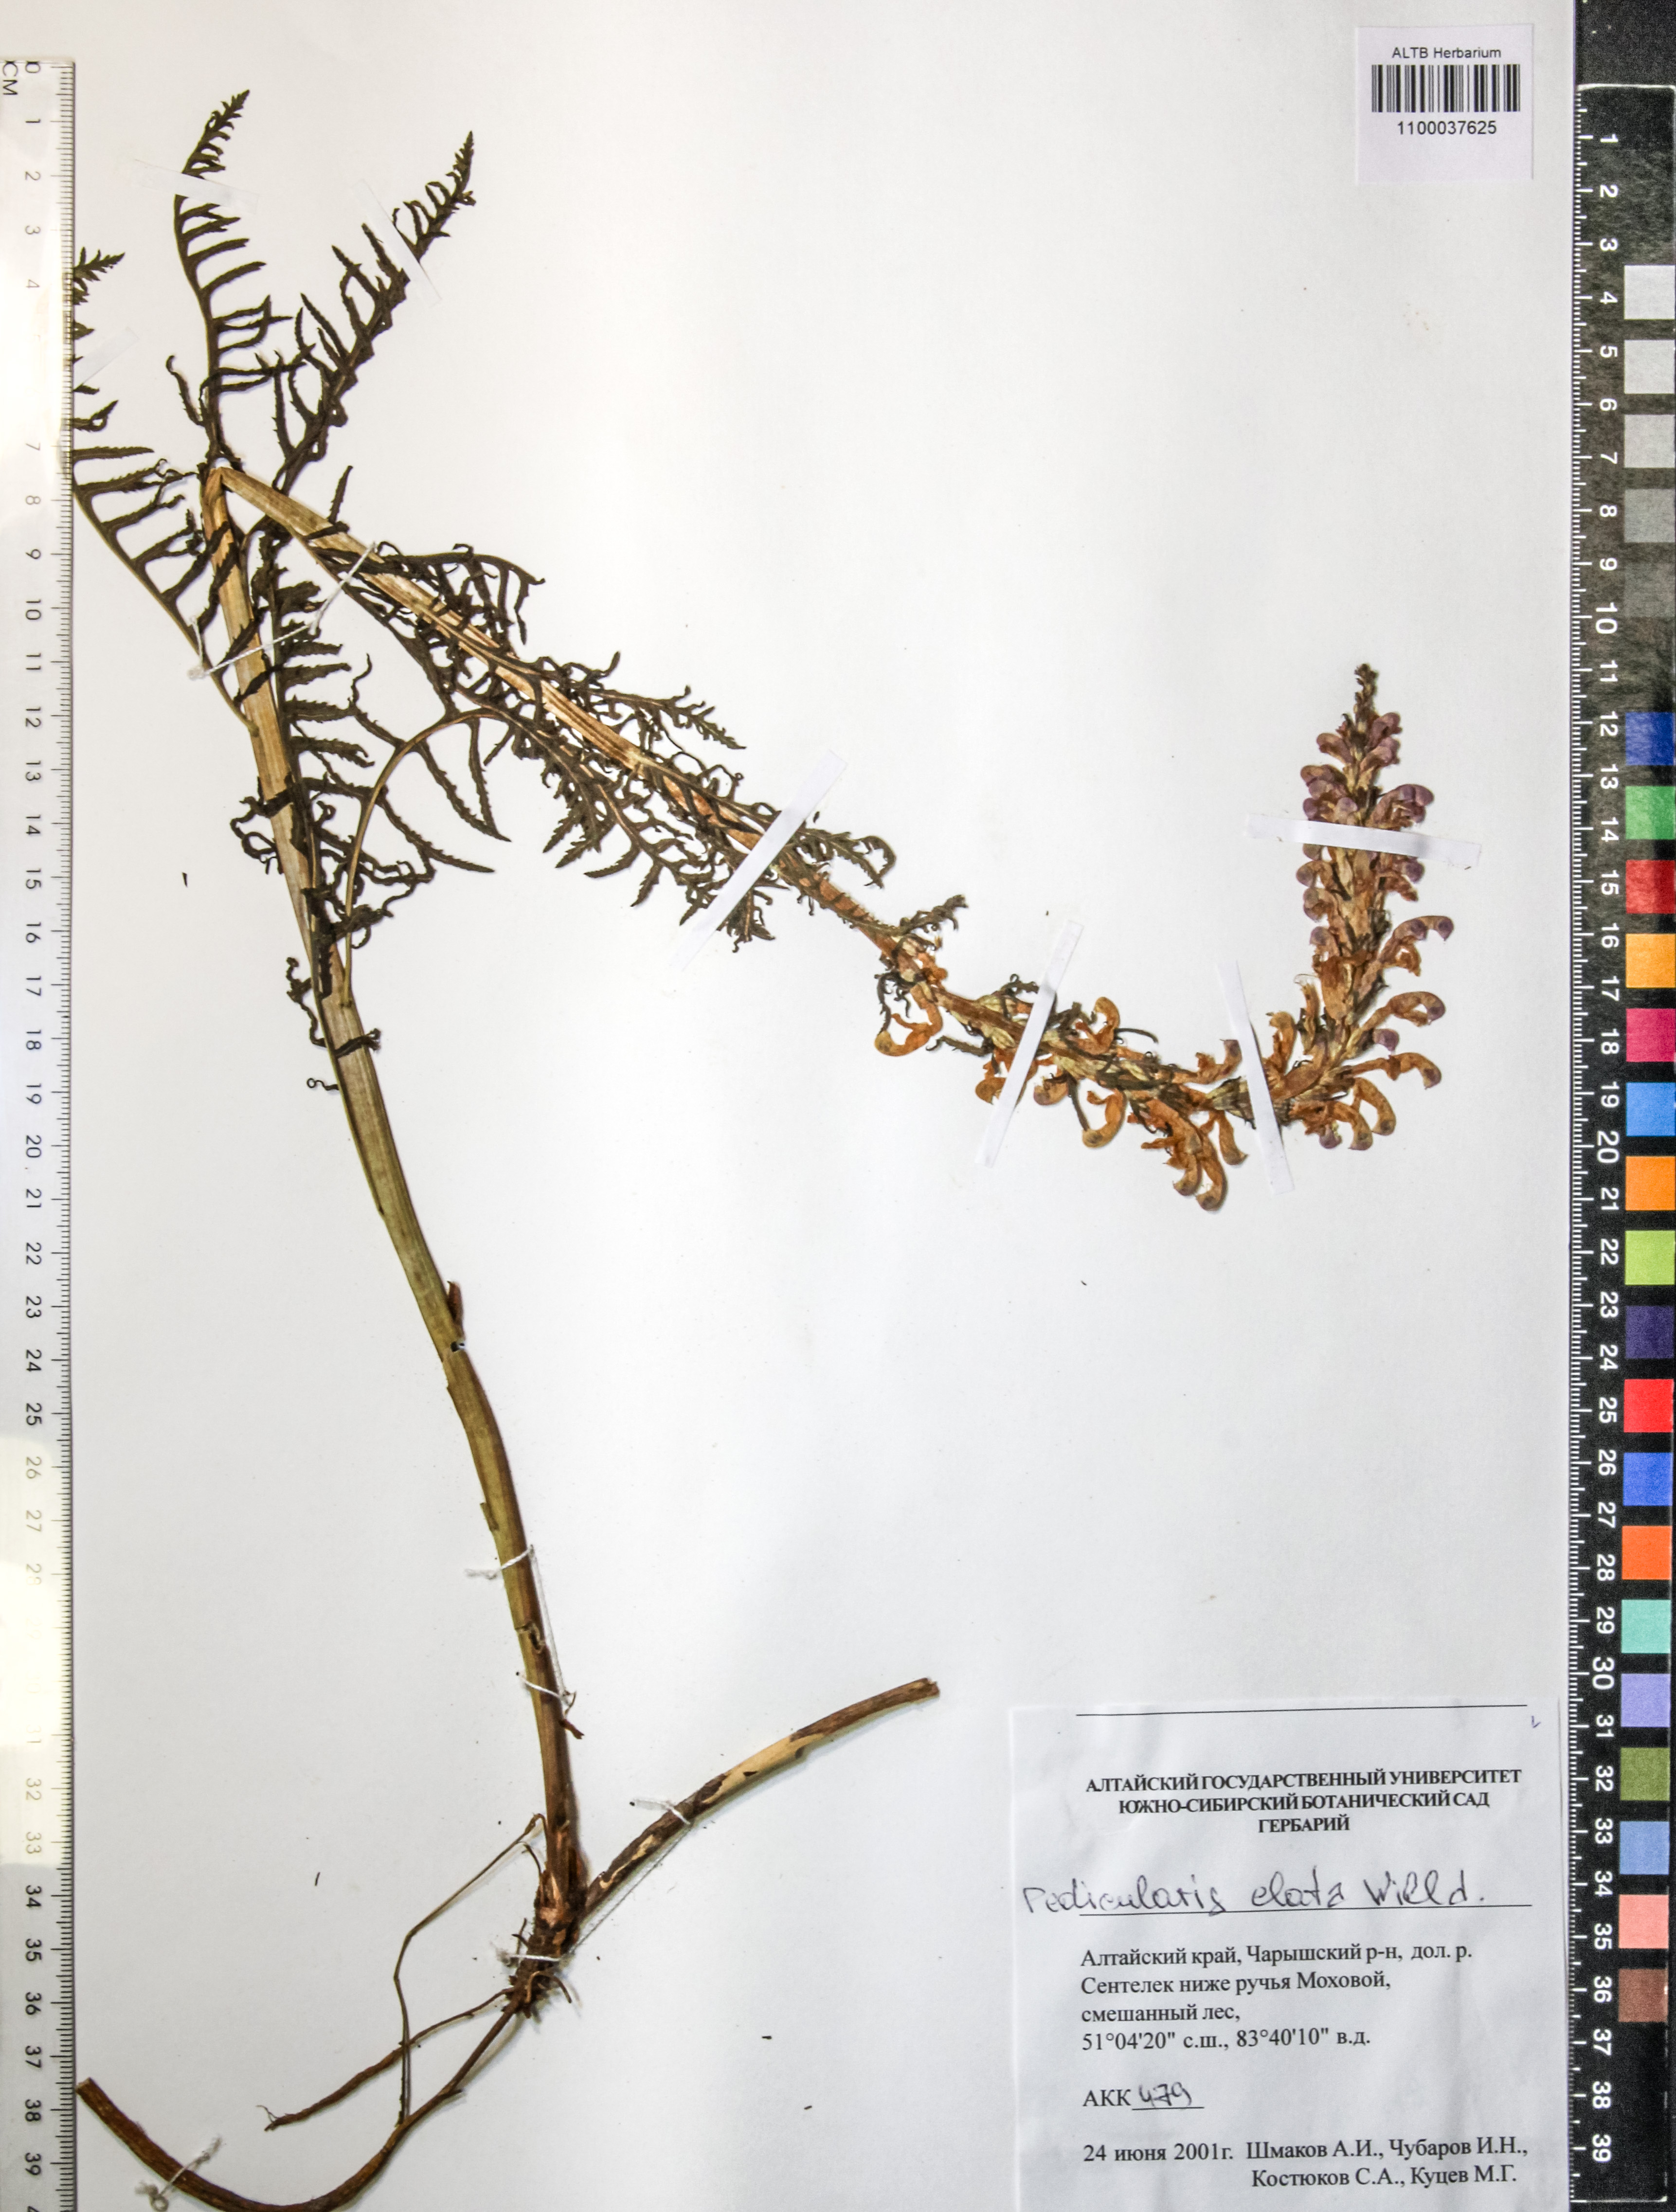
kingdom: Plantae
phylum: Tracheophyta
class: Magnoliopsida
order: Lamiales
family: Orobanchaceae
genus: Pedicularis
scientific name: Pedicularis elata
